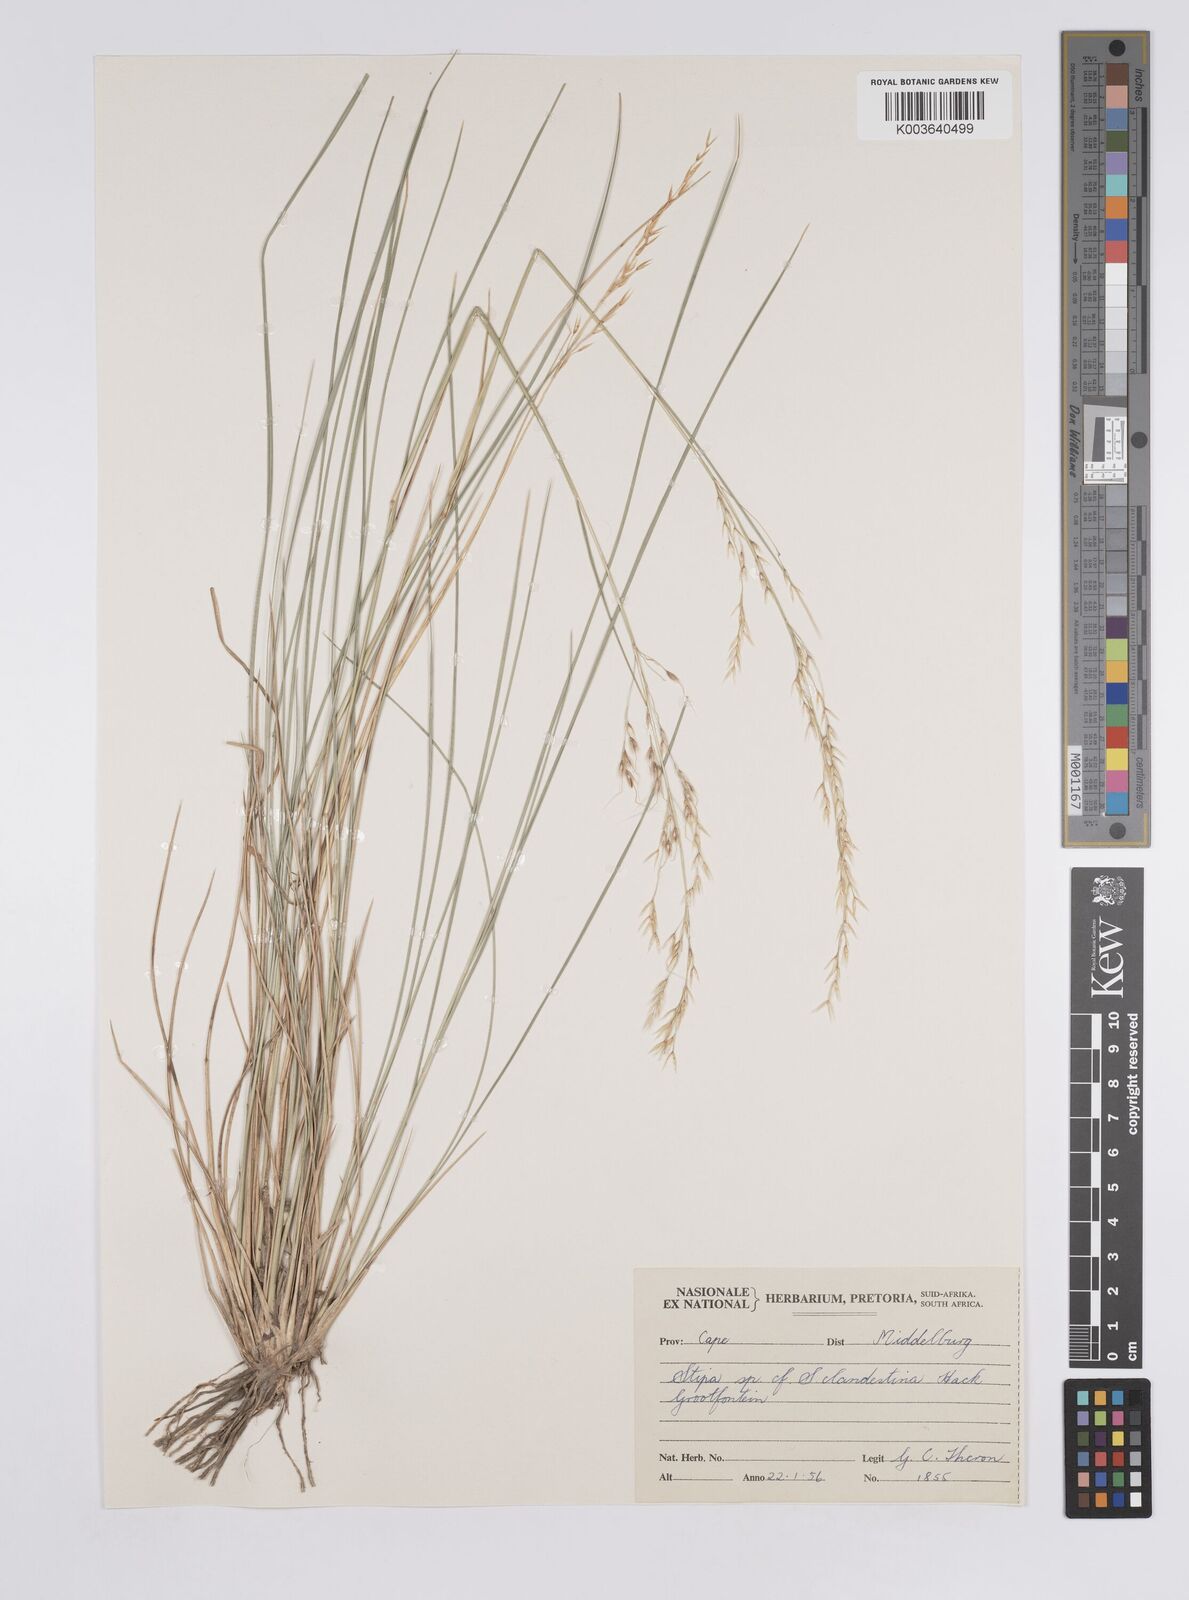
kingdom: Plantae
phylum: Tracheophyta
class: Liliopsida
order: Poales
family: Poaceae
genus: Aristida
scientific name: Aristida
